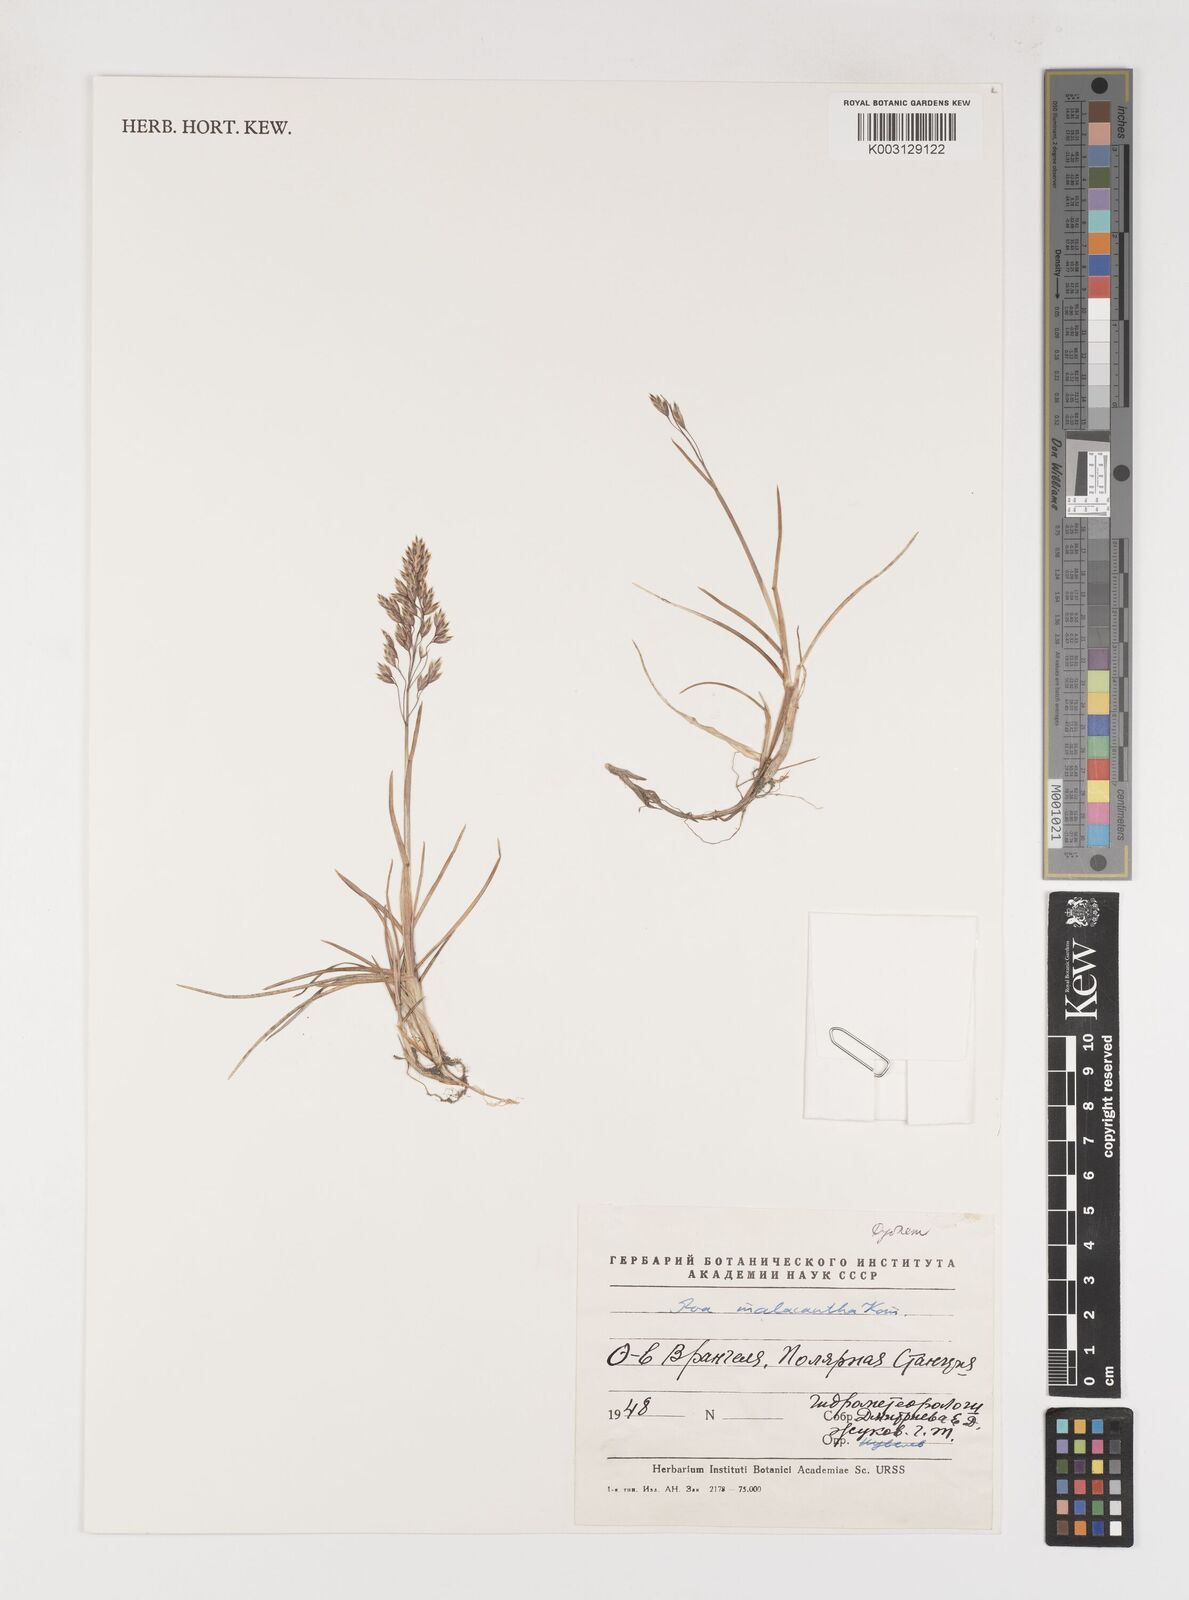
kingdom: Plantae
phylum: Tracheophyta
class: Liliopsida
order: Poales
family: Poaceae
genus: Poa
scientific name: Poa arctica
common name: Arctic bluegrass
